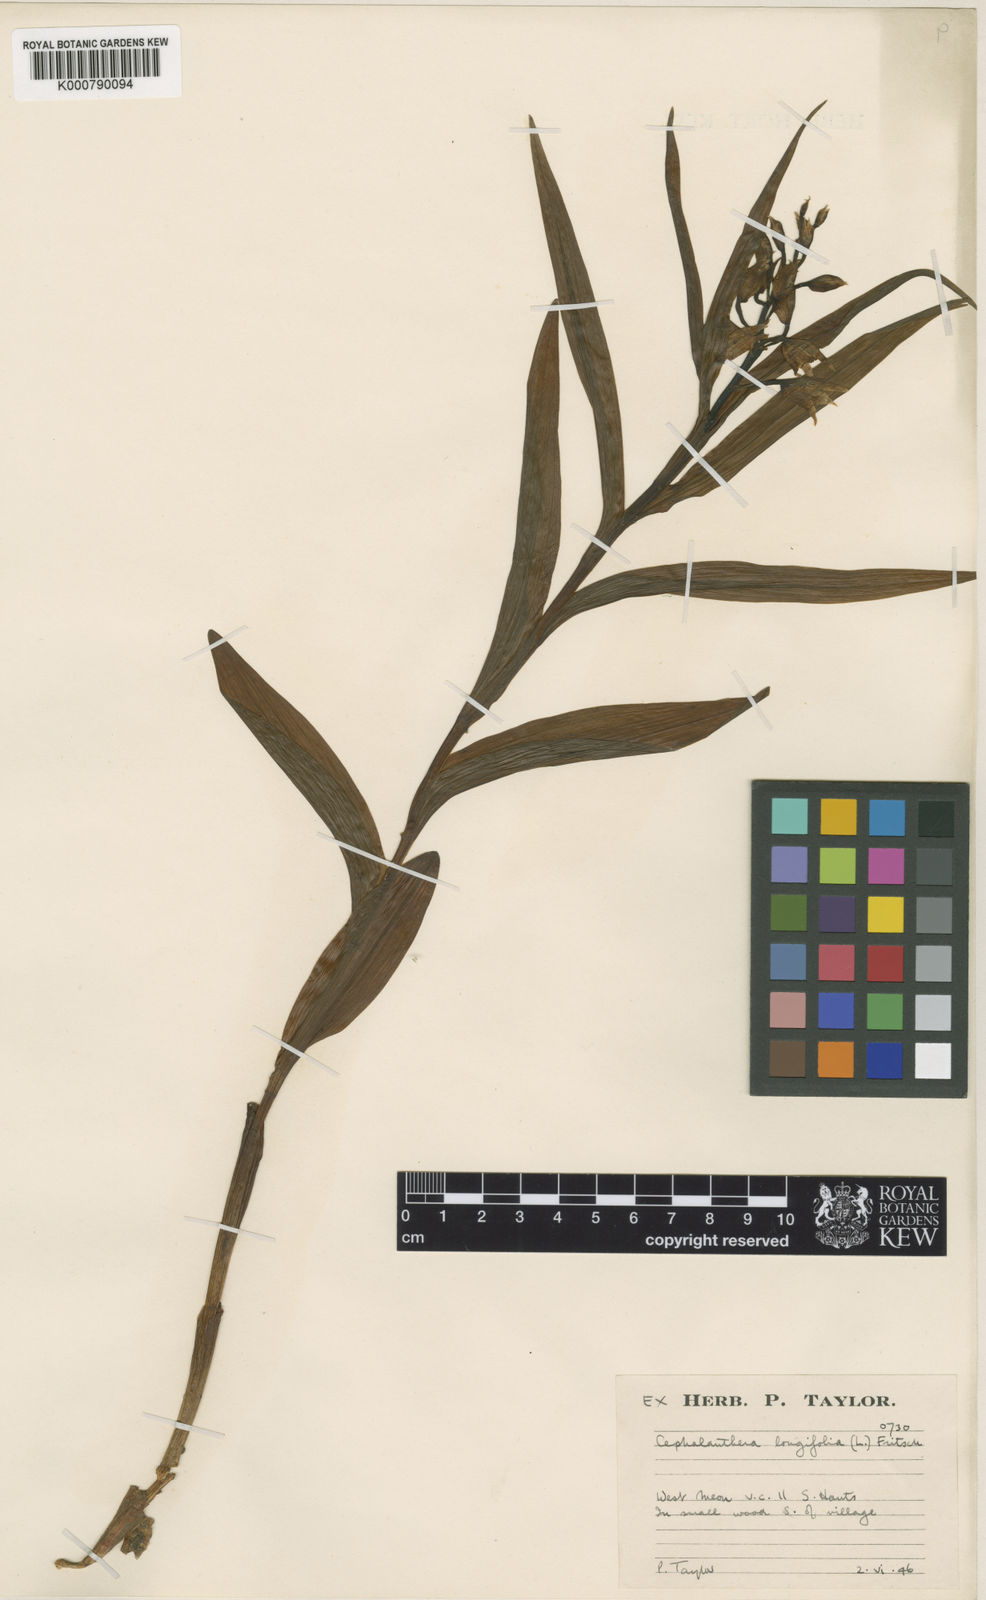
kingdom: Plantae
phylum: Tracheophyta
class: Liliopsida
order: Asparagales
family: Orchidaceae
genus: Cephalanthera
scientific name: Cephalanthera longifolia
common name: Narrow-leaved helleborine
